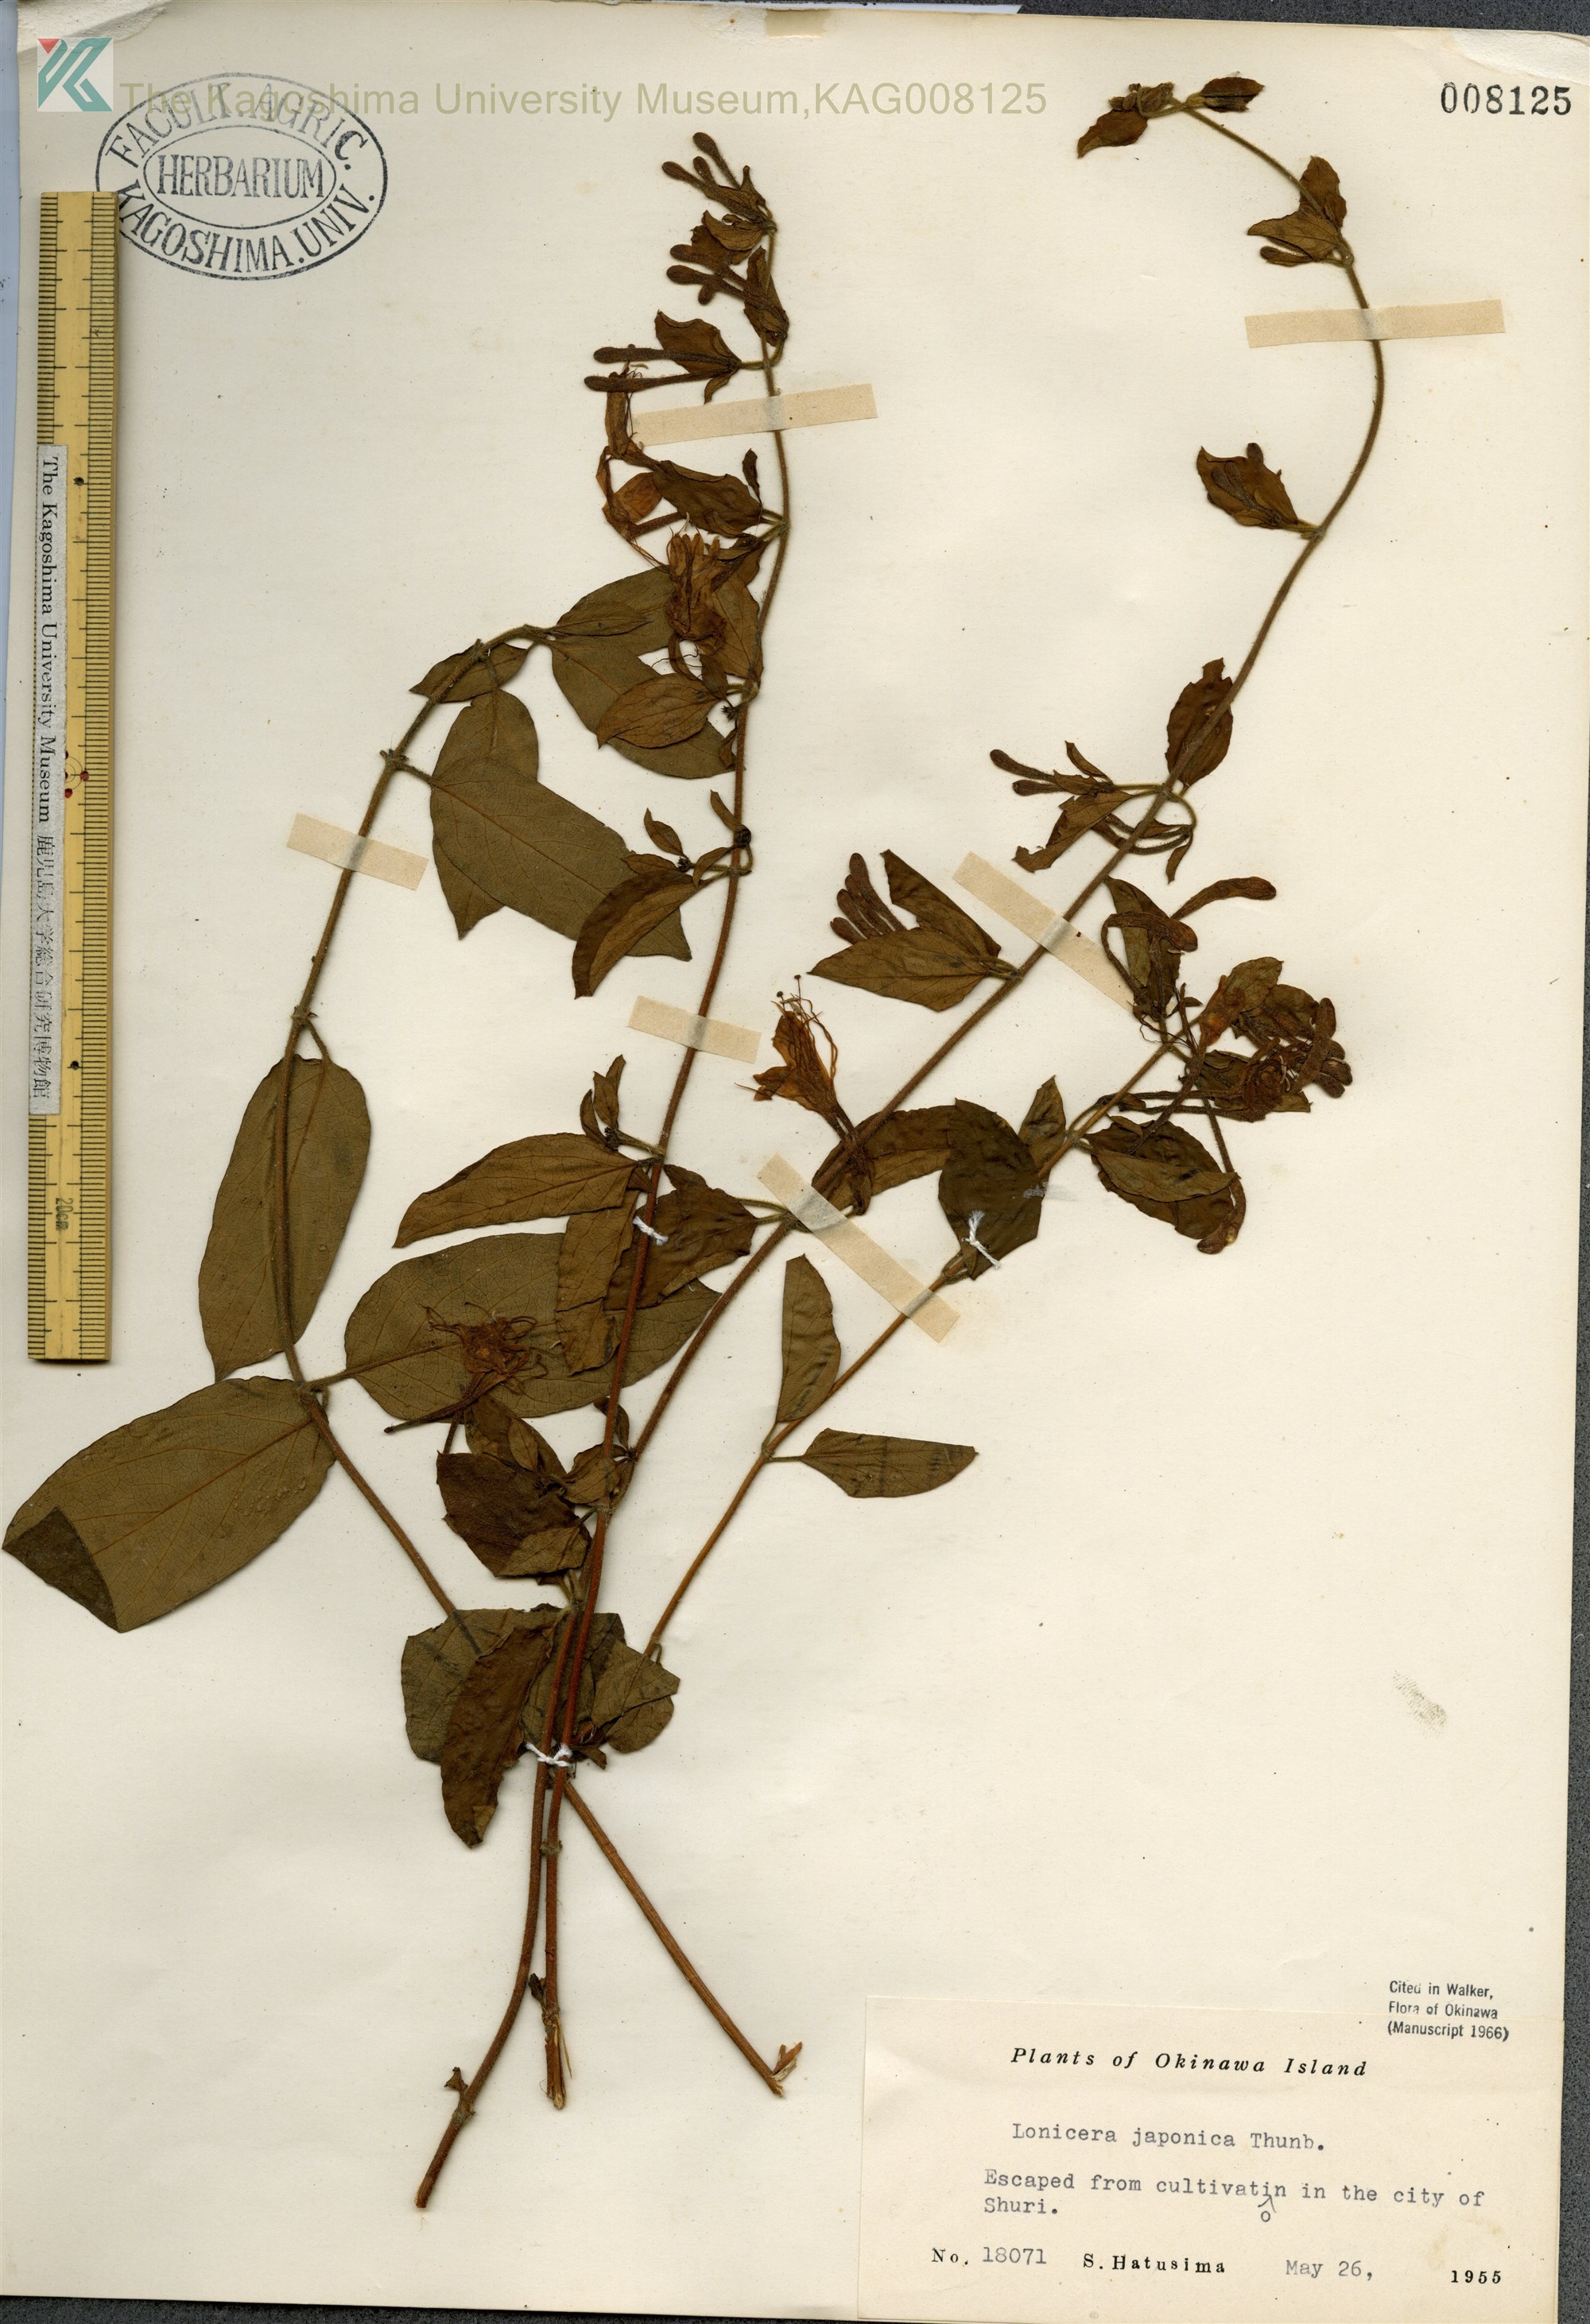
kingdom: Plantae
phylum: Tracheophyta
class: Magnoliopsida
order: Dipsacales
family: Caprifoliaceae
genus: Lonicera
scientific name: Lonicera japonica
